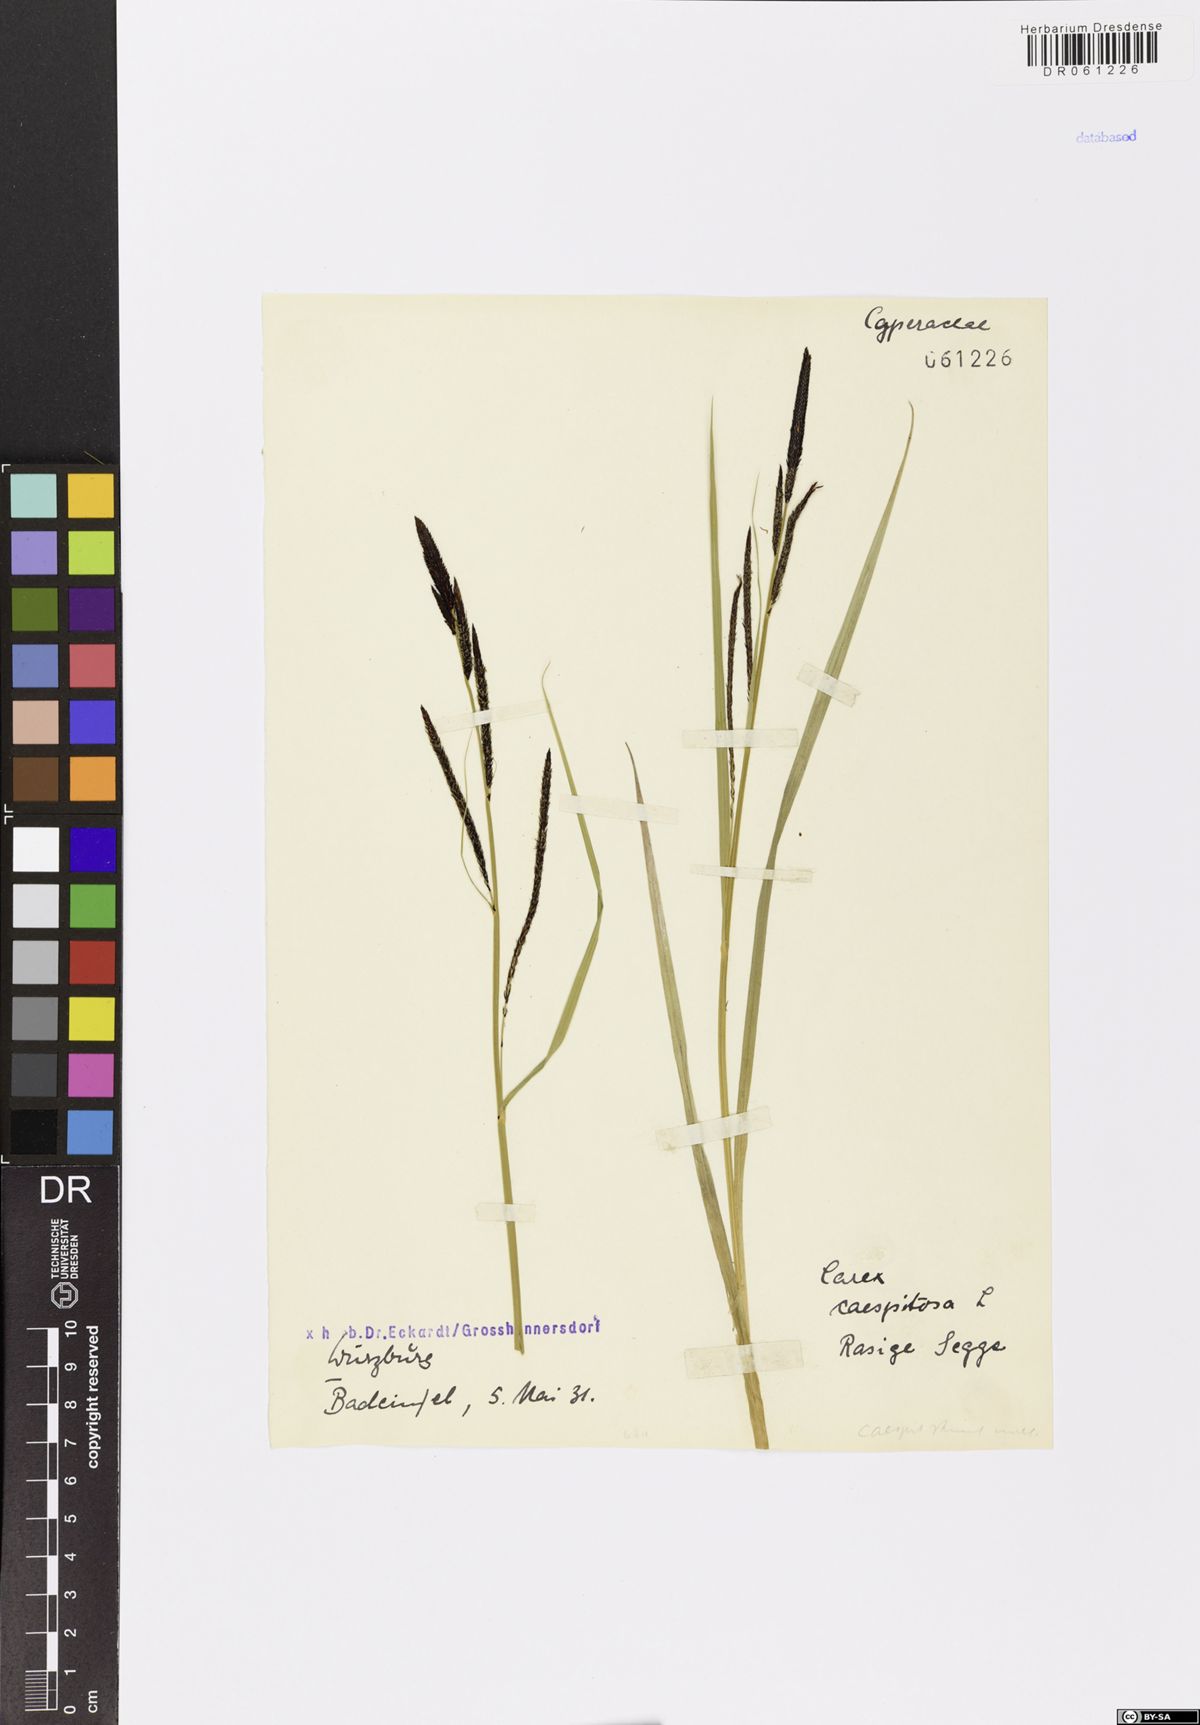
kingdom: Plantae
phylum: Tracheophyta
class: Liliopsida
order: Poales
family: Cyperaceae
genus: Carex
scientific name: Carex cespitosa
